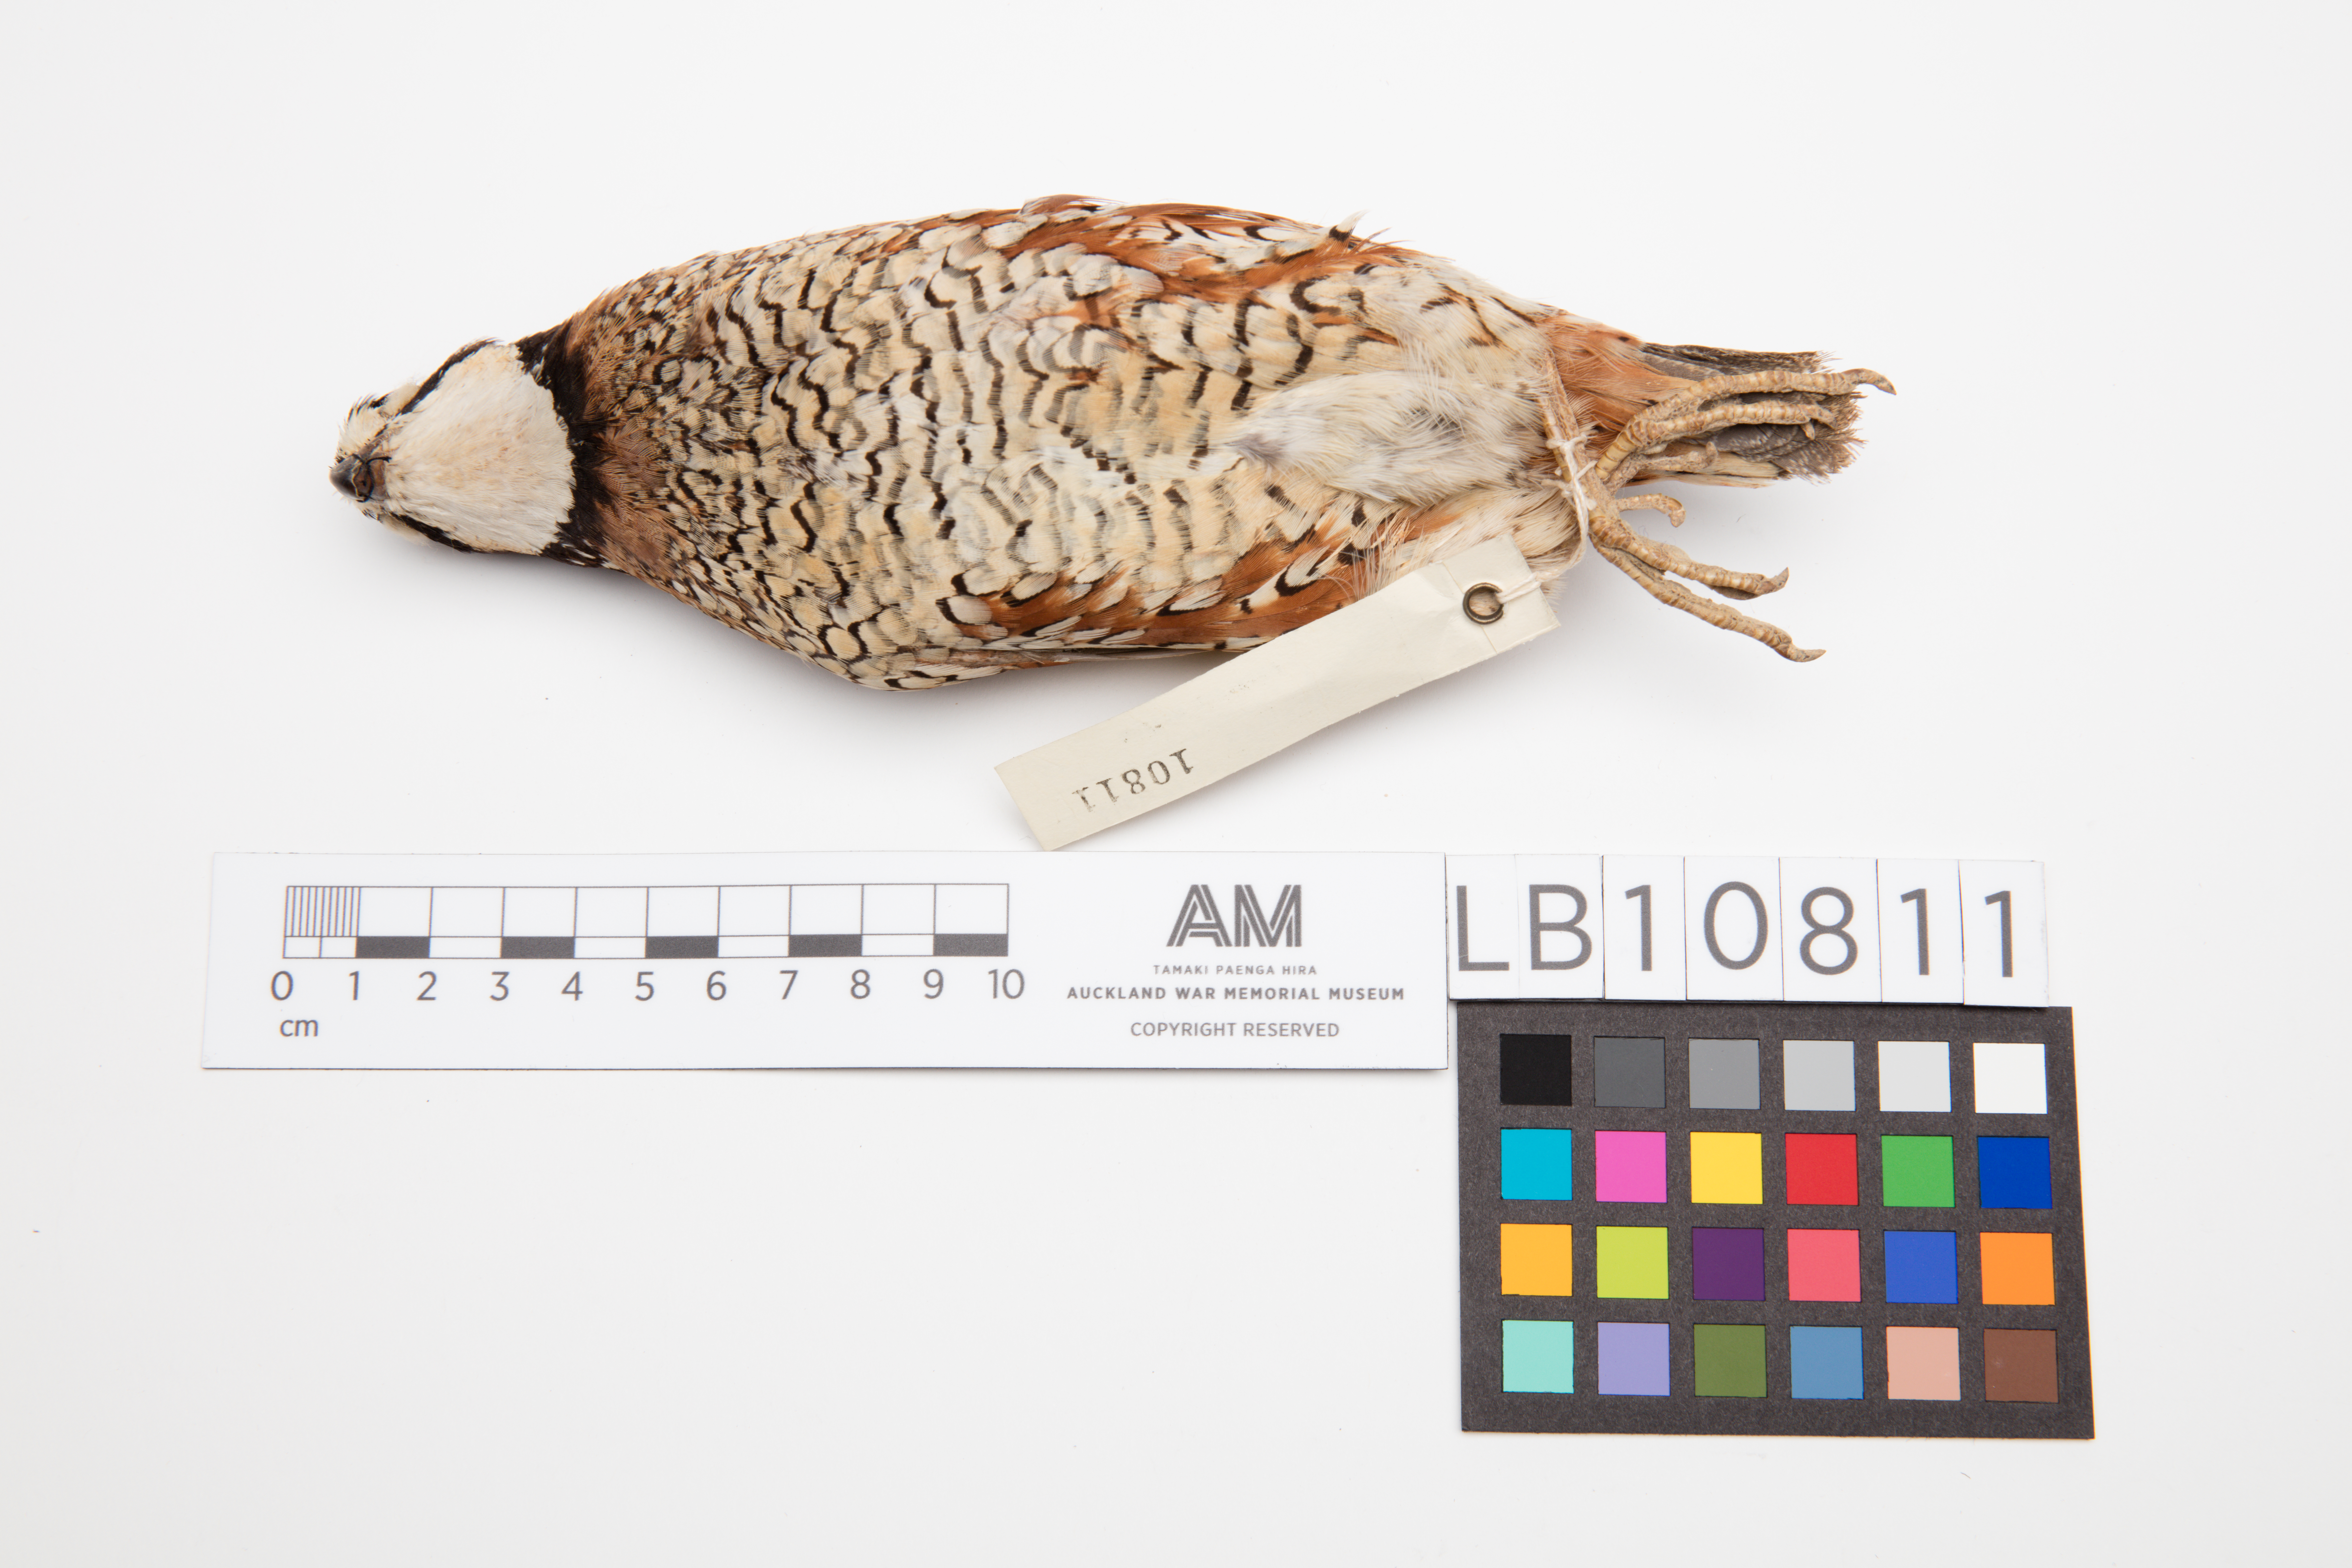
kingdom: Animalia
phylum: Chordata
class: Aves
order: Galliformes
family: Odontophoridae
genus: Colinus
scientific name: Colinus virginianus
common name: Northern bobwhite
